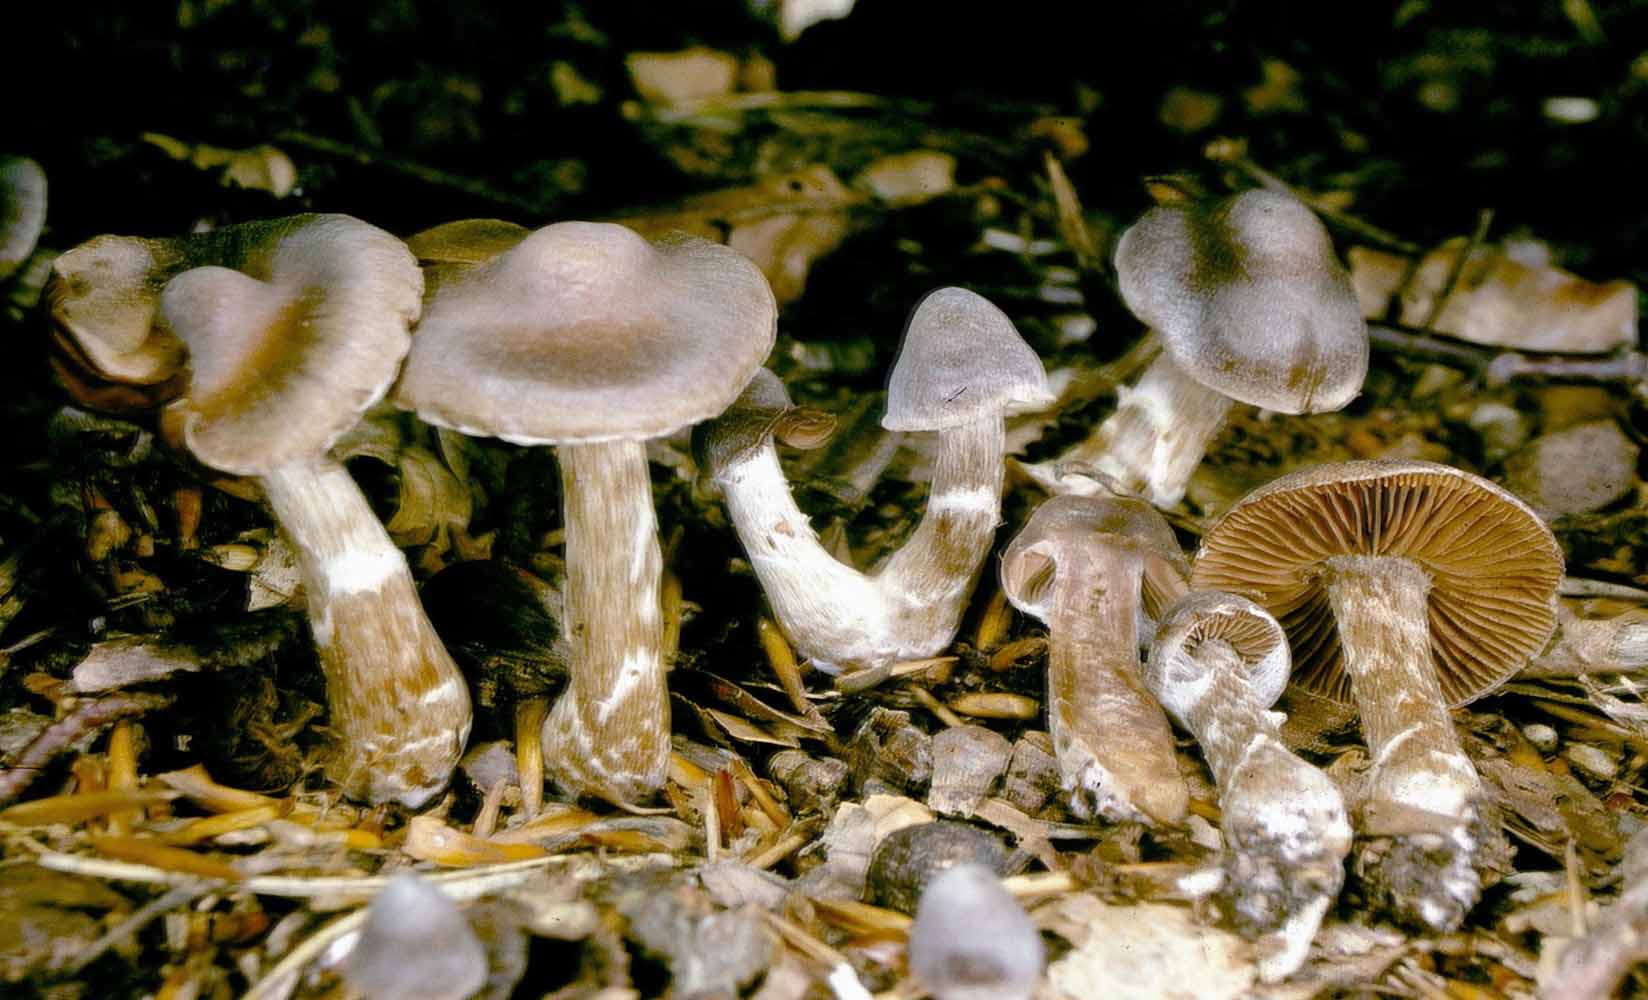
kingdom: Fungi
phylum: Basidiomycota
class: Agaricomycetes
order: Agaricales
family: Cortinariaceae
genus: Cortinarius
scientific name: Cortinarius
